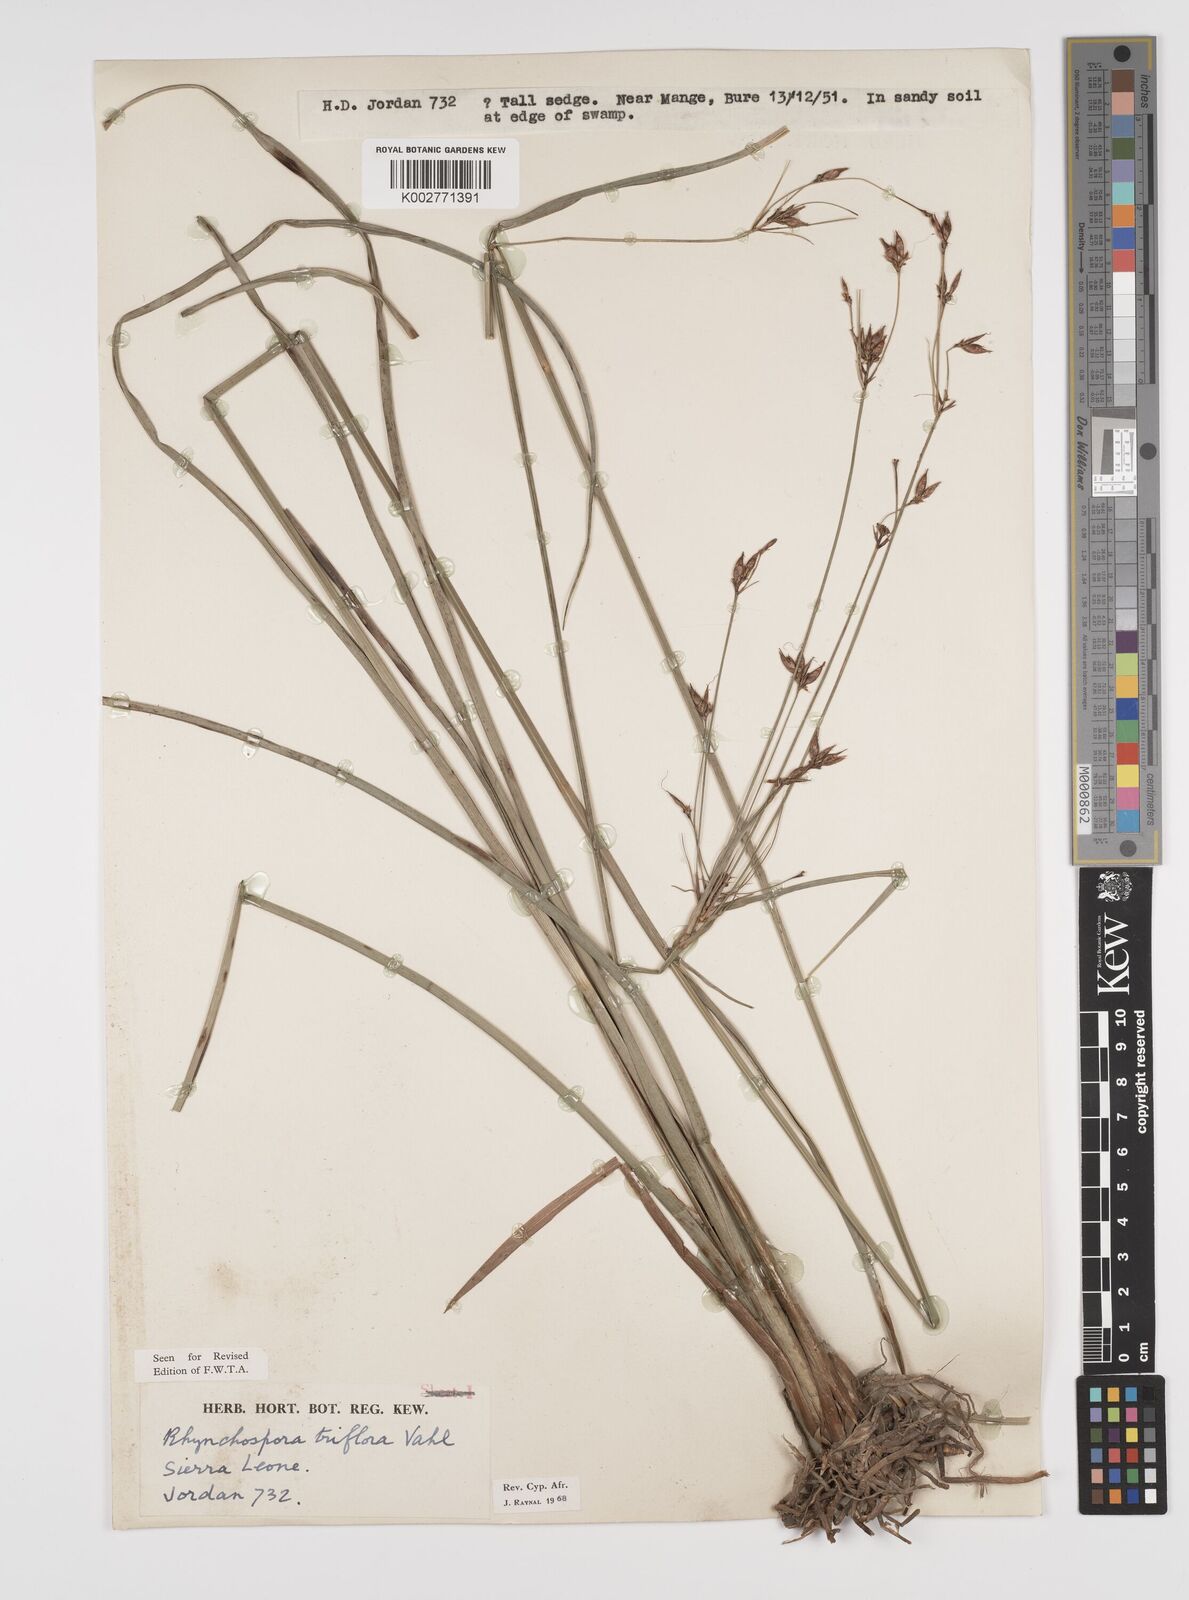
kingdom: Plantae
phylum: Tracheophyta
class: Liliopsida
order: Poales
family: Cyperaceae
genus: Rhynchospora
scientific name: Rhynchospora triflora
